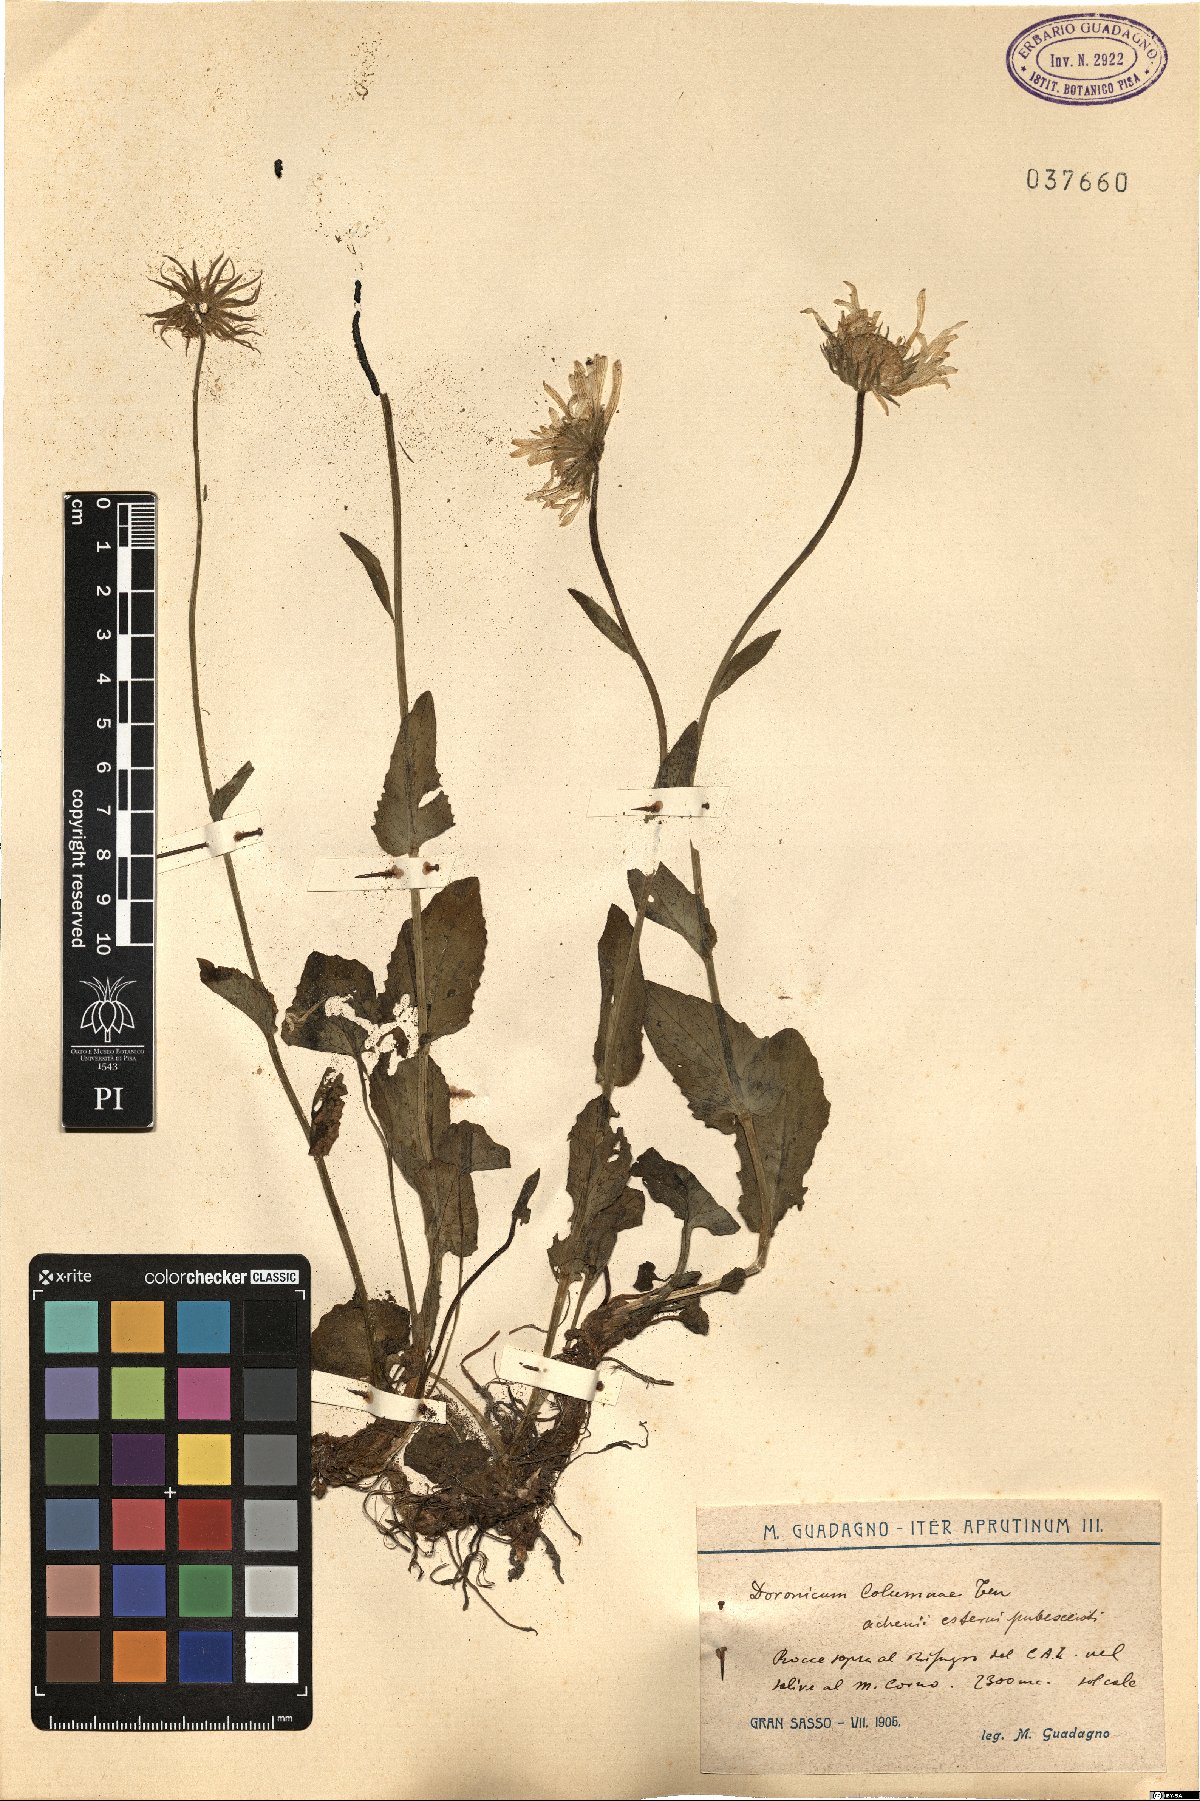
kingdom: Plantae
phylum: Tracheophyta
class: Magnoliopsida
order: Asterales
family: Asteraceae
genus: Doronicum
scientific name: Doronicum columnae
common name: Eastern leopard's-bane
